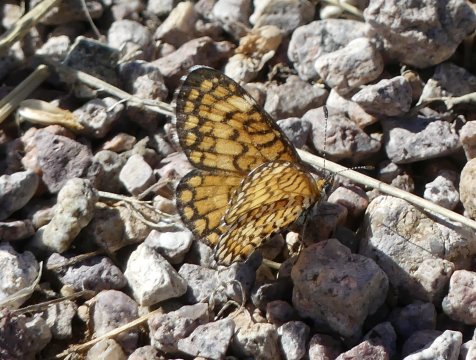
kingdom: Animalia
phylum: Arthropoda
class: Insecta
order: Lepidoptera
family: Nymphalidae
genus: Dymasia
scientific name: Dymasia dymas
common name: Tiny Checkerspot
